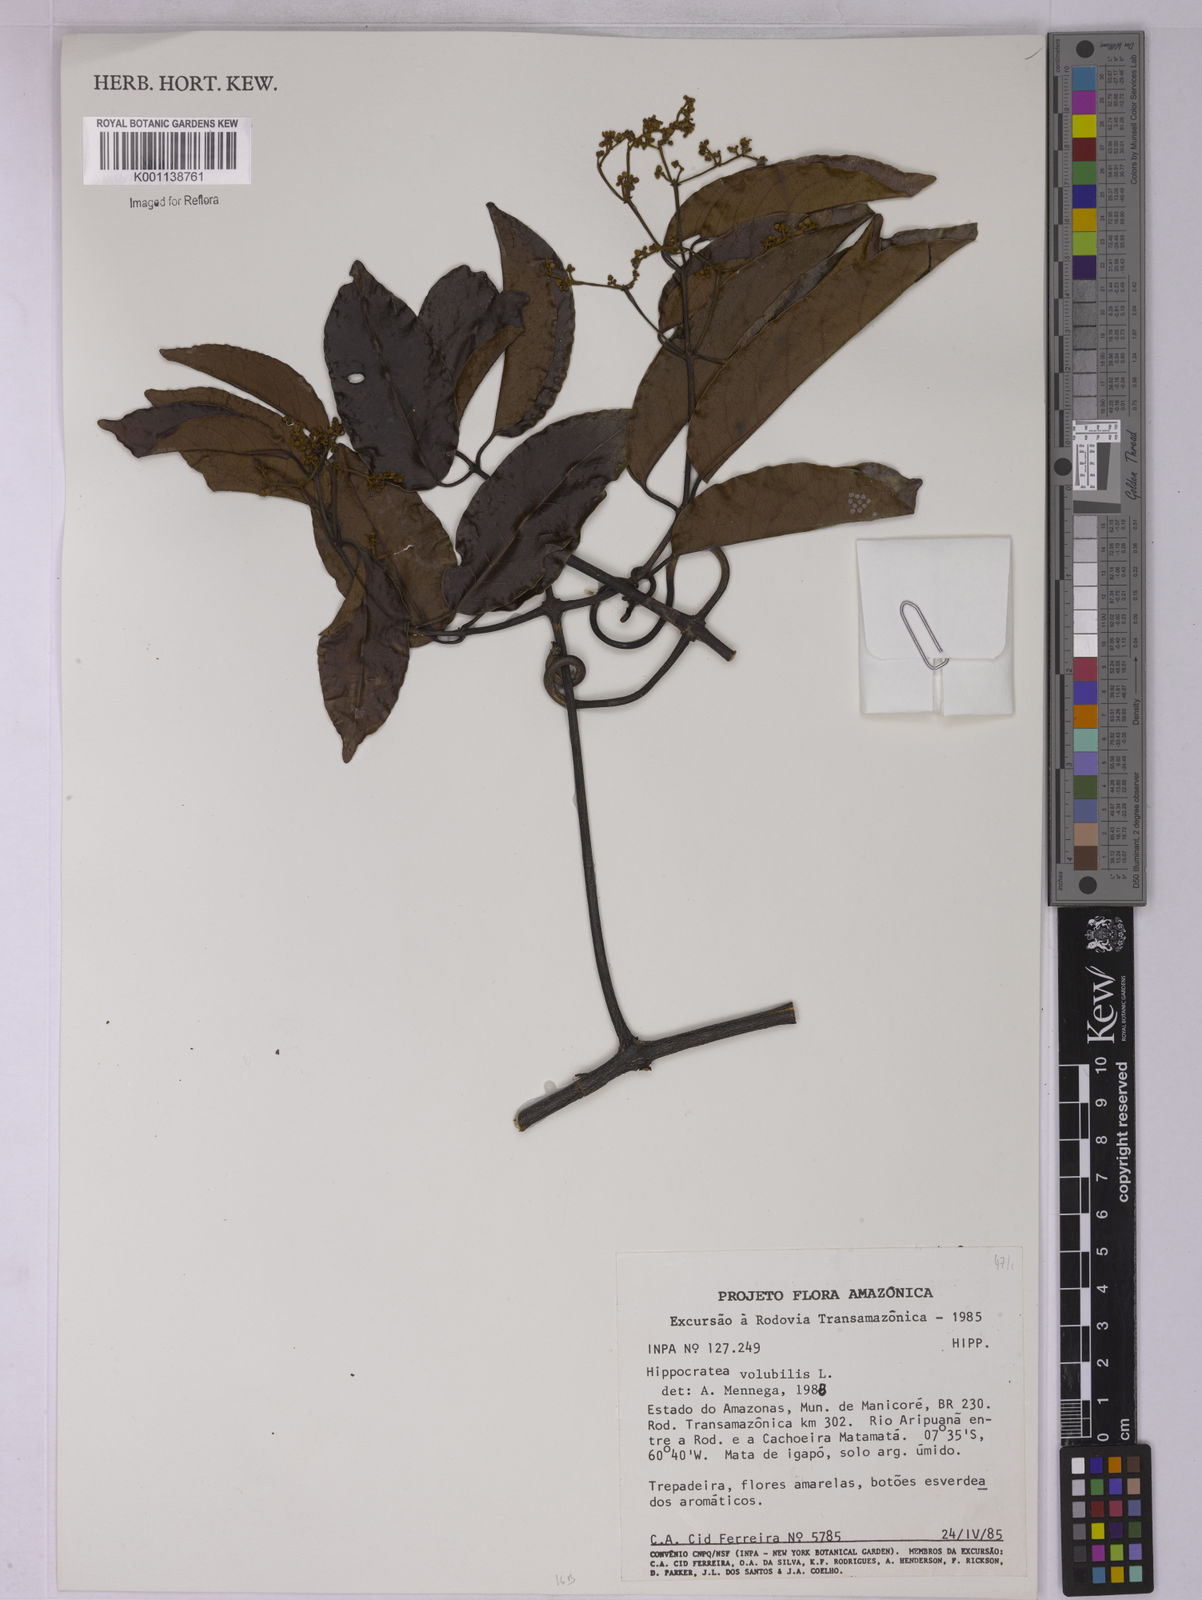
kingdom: Plantae
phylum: Tracheophyta
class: Magnoliopsida
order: Celastrales
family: Celastraceae
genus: Hippocratea
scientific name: Hippocratea volubilis
